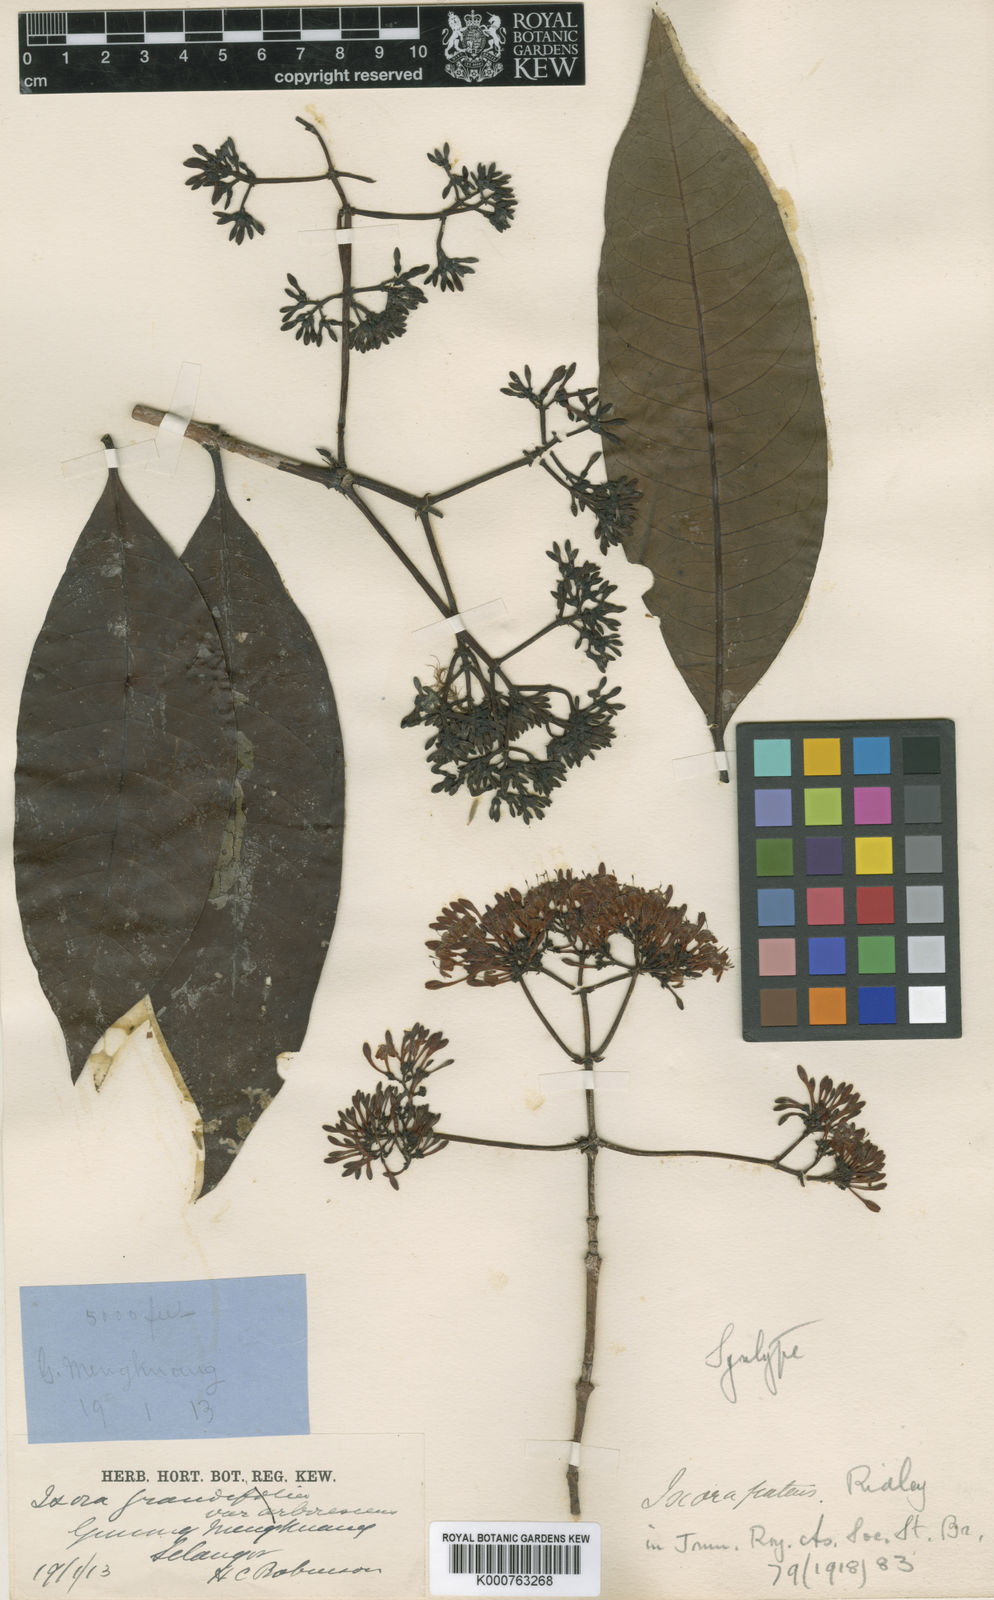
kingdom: Plantae
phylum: Tracheophyta
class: Magnoliopsida
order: Gentianales
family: Rubiaceae
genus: Ixora
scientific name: Ixora patens
